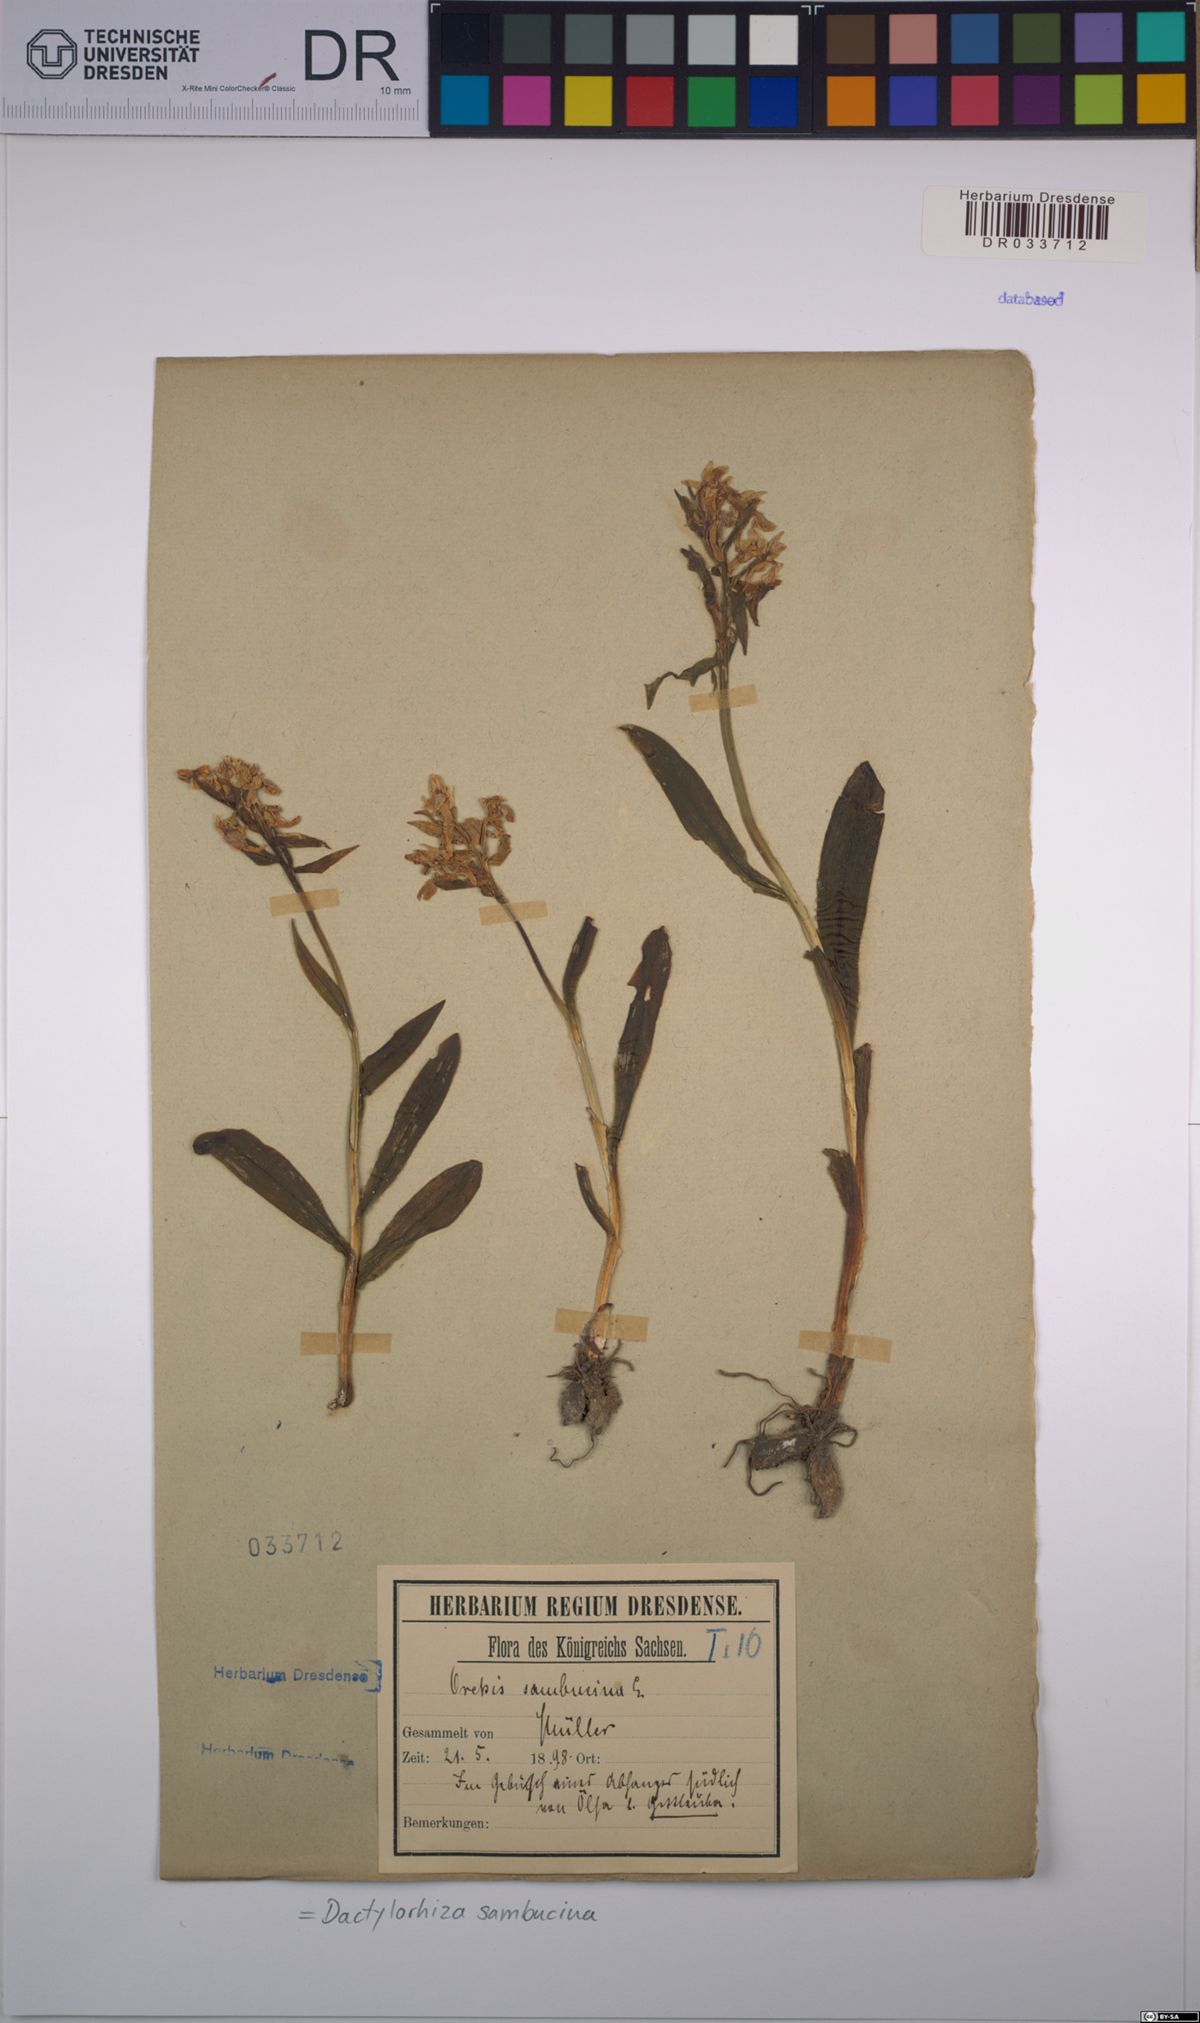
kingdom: Plantae
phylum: Tracheophyta
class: Liliopsida
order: Asparagales
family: Orchidaceae
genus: Dactylorhiza
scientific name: Dactylorhiza sambucina
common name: Elder-flowered orchid
